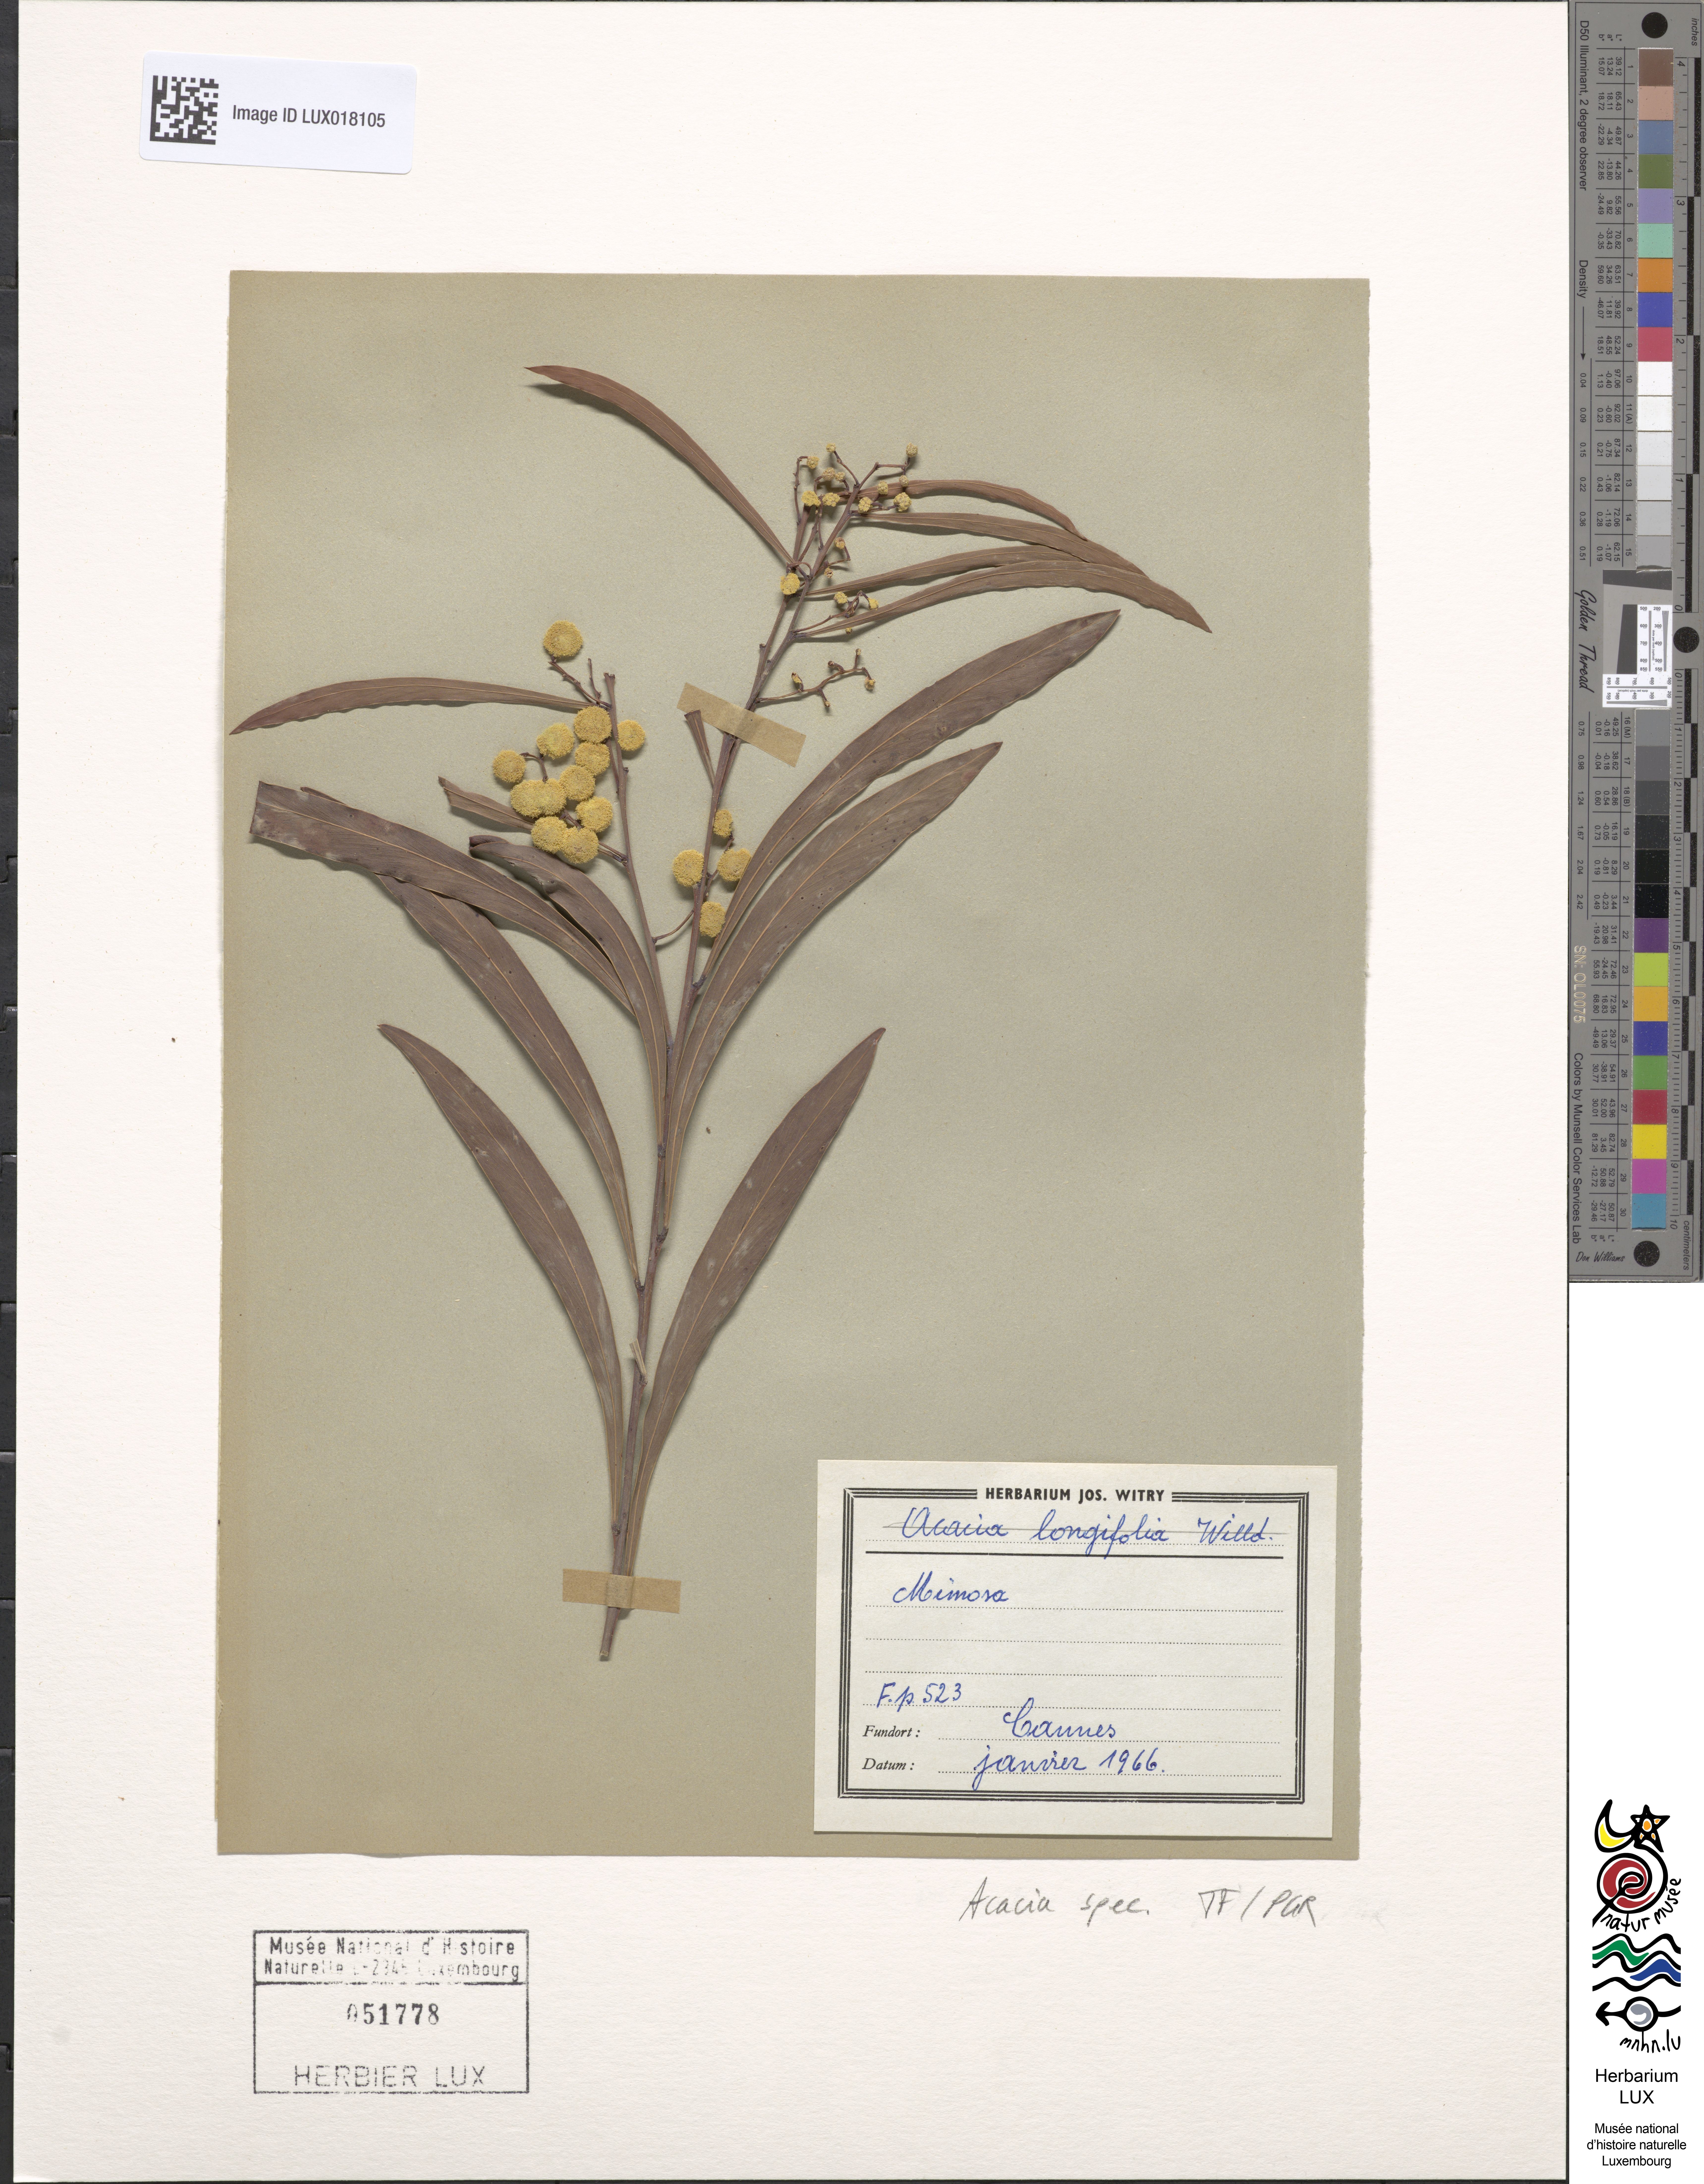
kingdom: Plantae
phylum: Tracheophyta
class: Magnoliopsida
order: Fabales
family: Fabaceae
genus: Acacia
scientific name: Acacia
